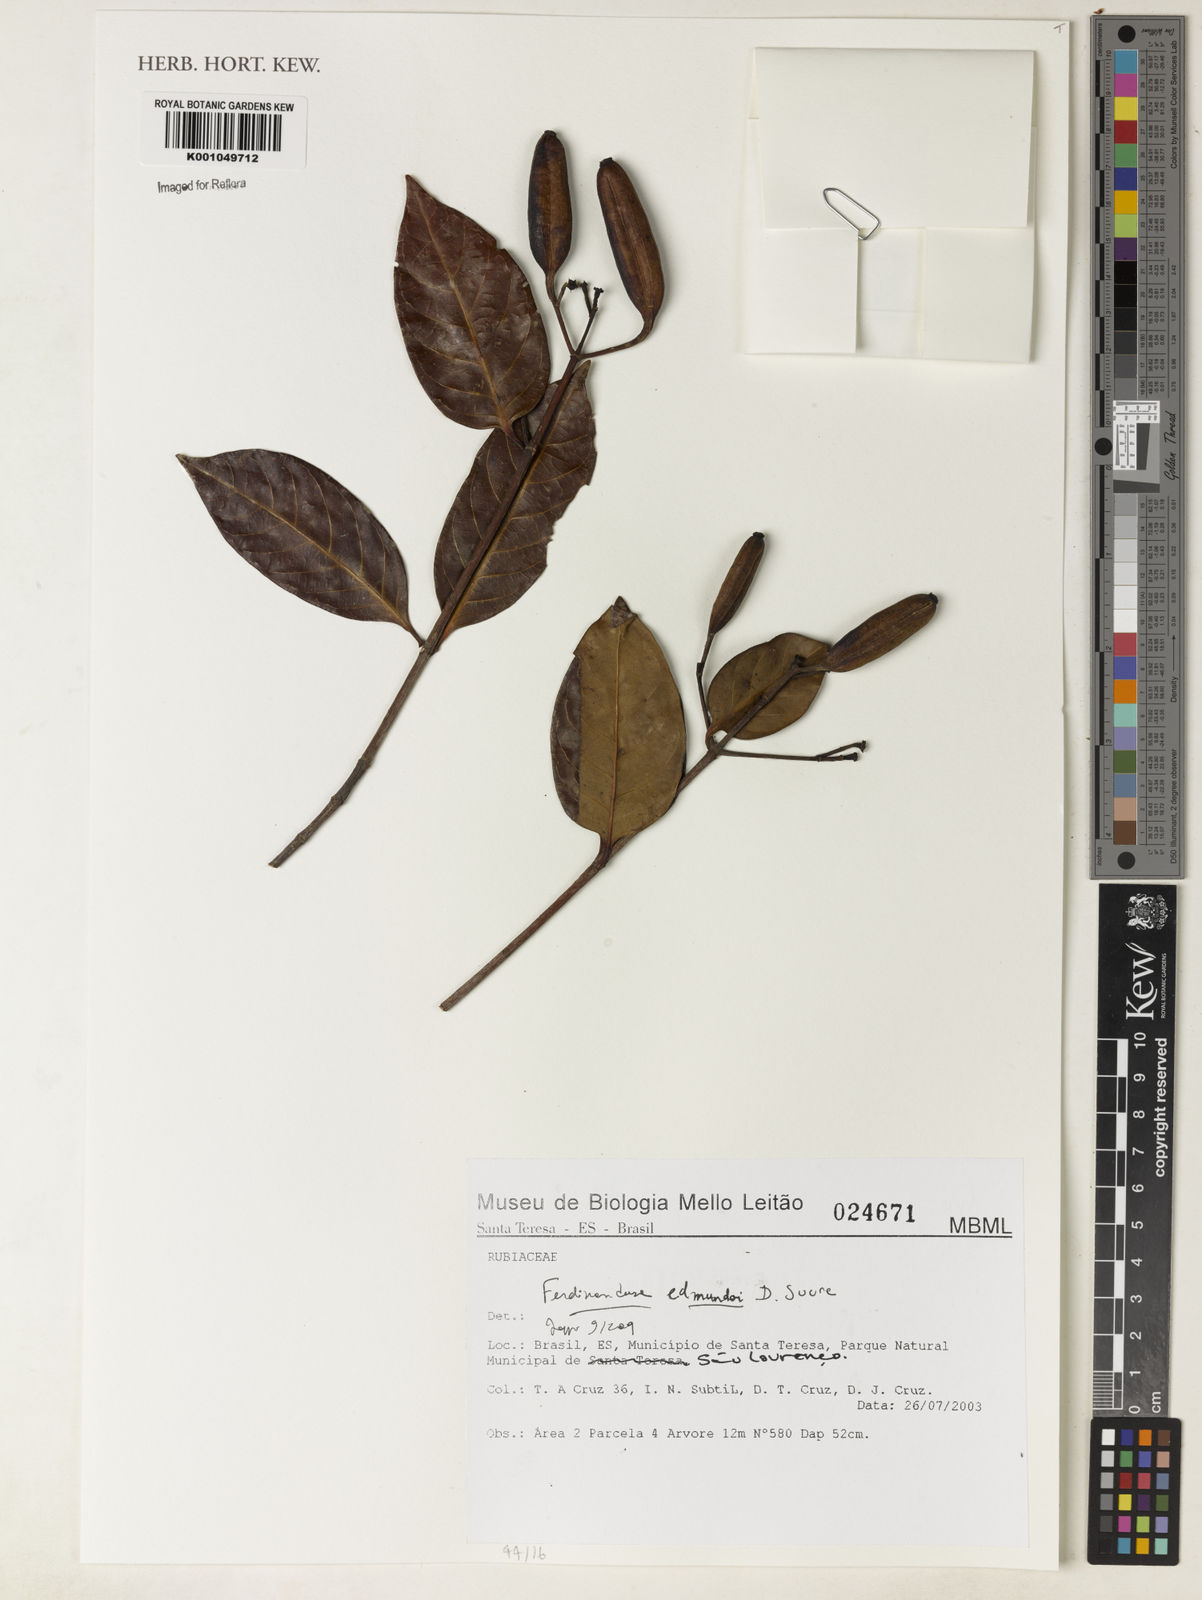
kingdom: Plantae
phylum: Tracheophyta
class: Magnoliopsida
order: Gentianales
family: Rubiaceae
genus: Ferdinandusa
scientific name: Ferdinandusa edmundoi
